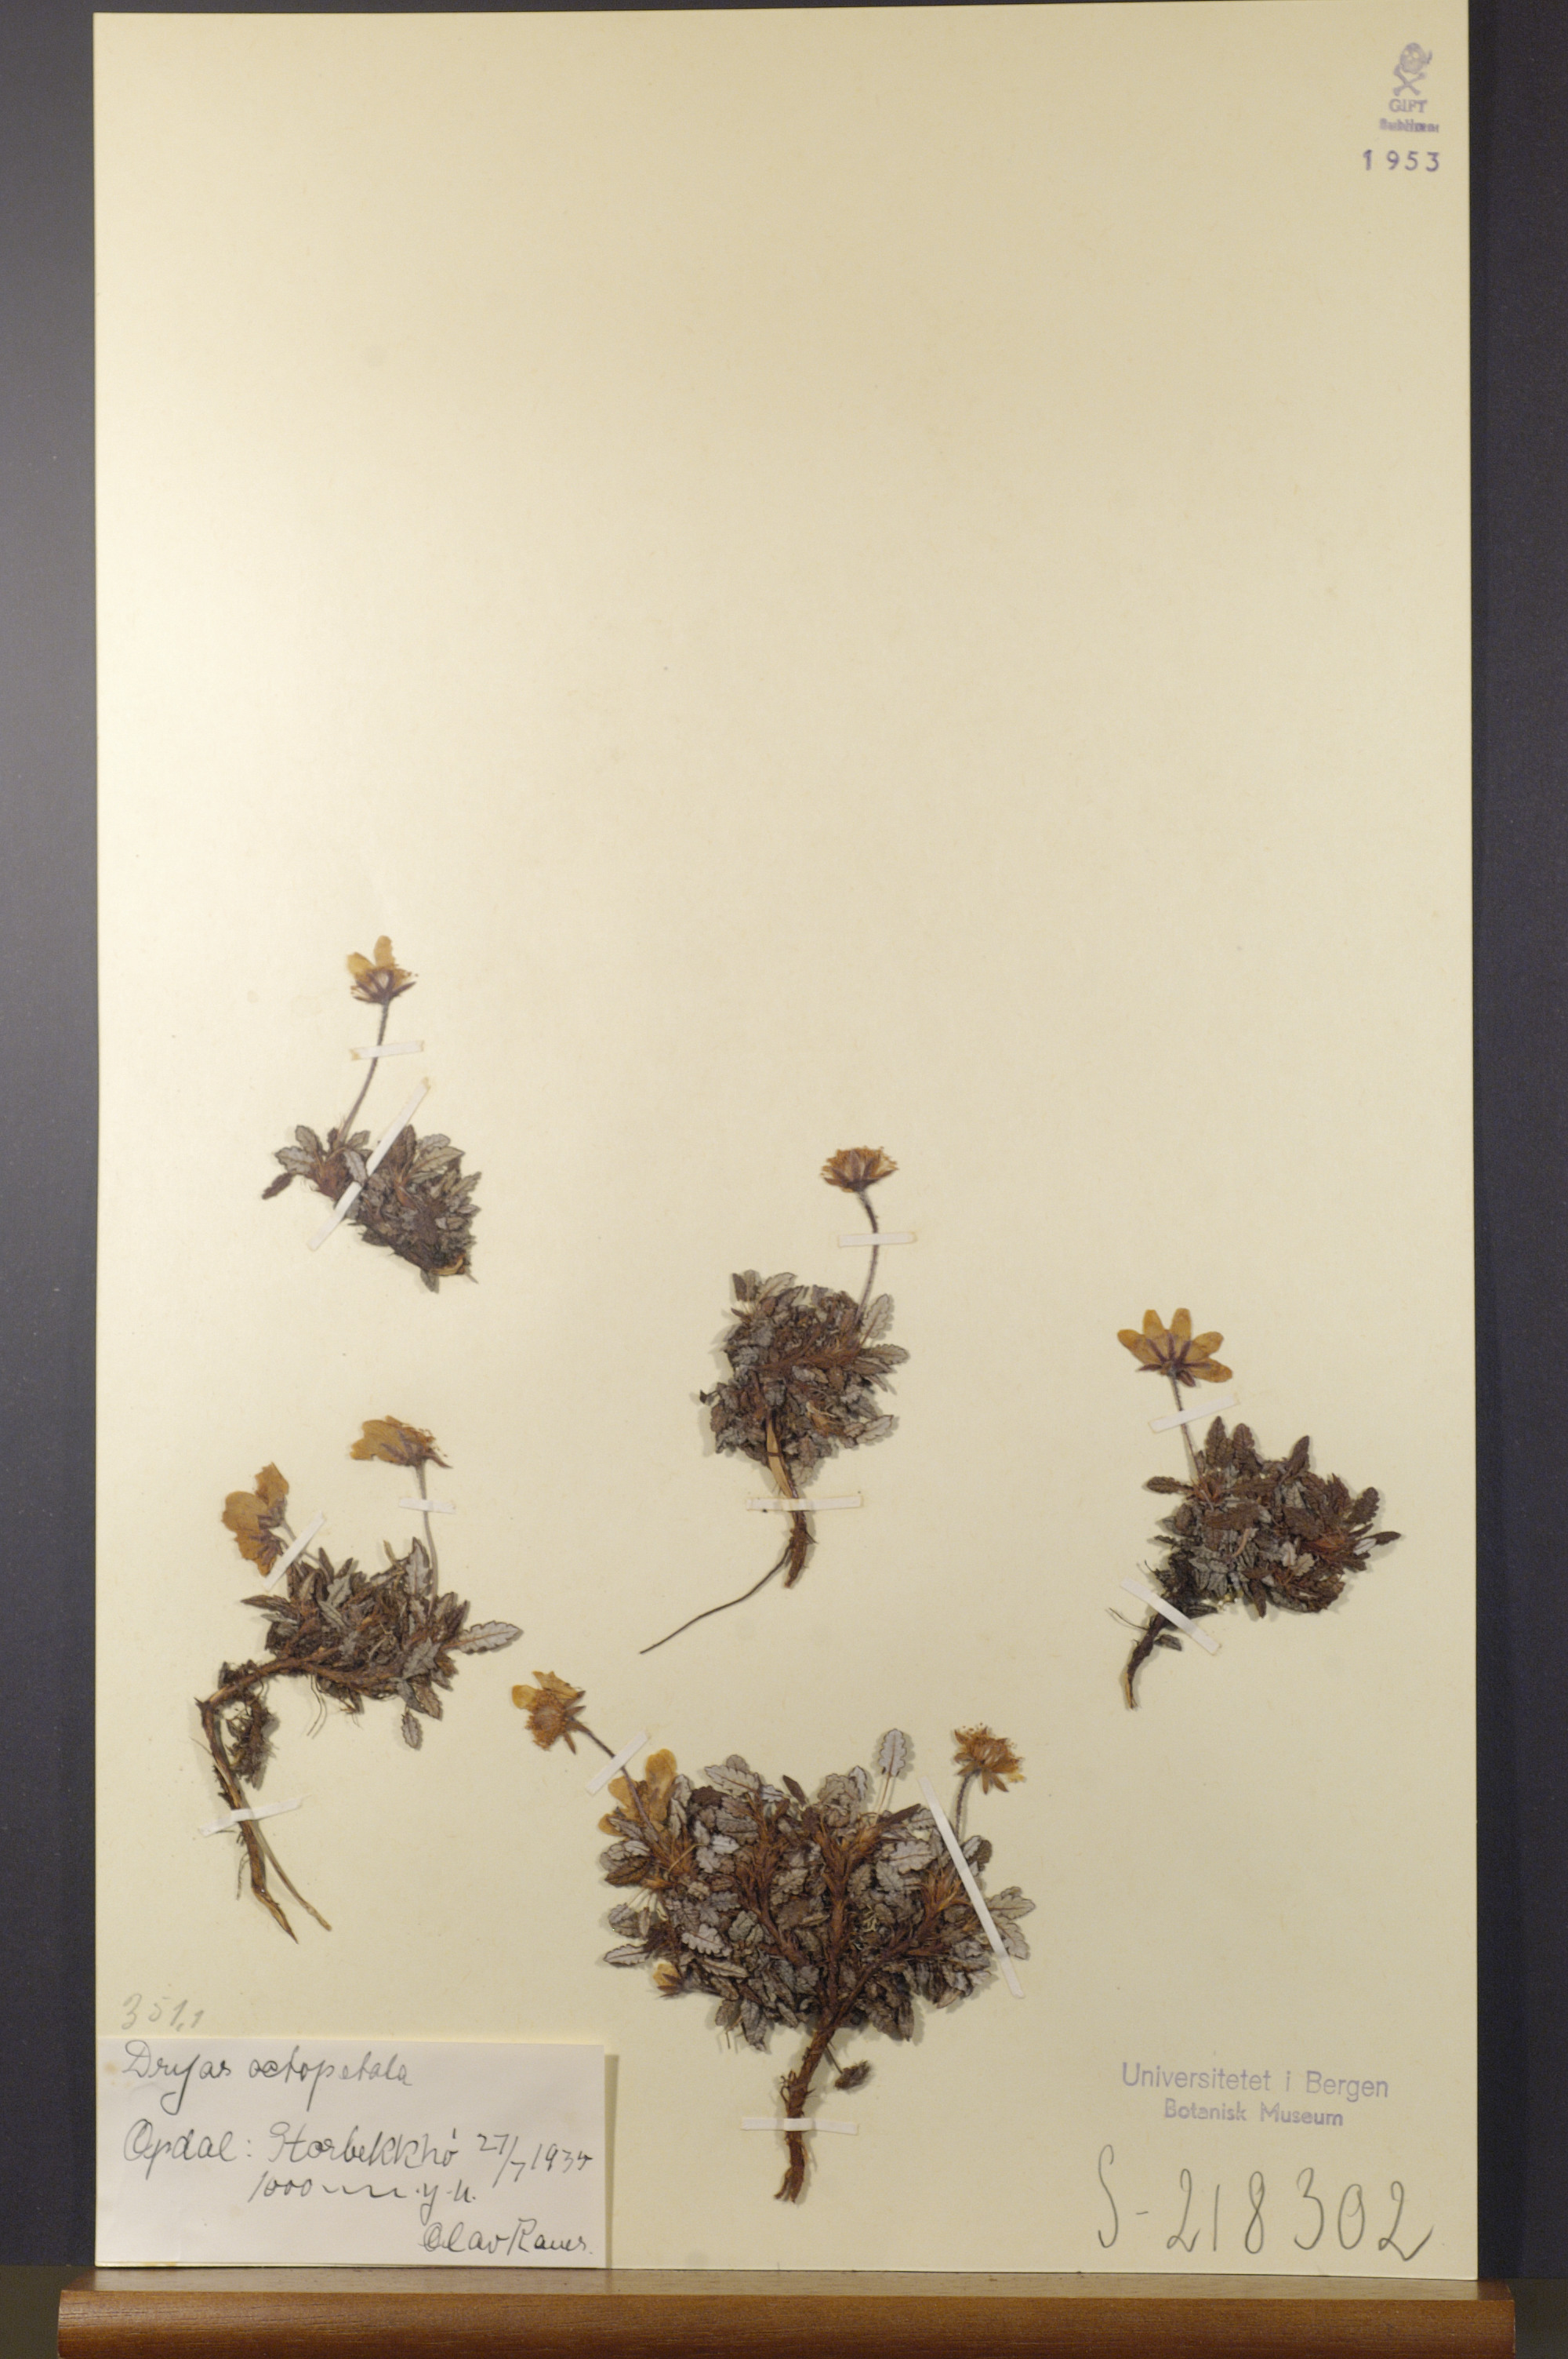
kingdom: Plantae
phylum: Tracheophyta
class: Magnoliopsida
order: Rosales
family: Rosaceae
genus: Dryas
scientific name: Dryas octopetala
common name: Eight-petal mountain-avens
